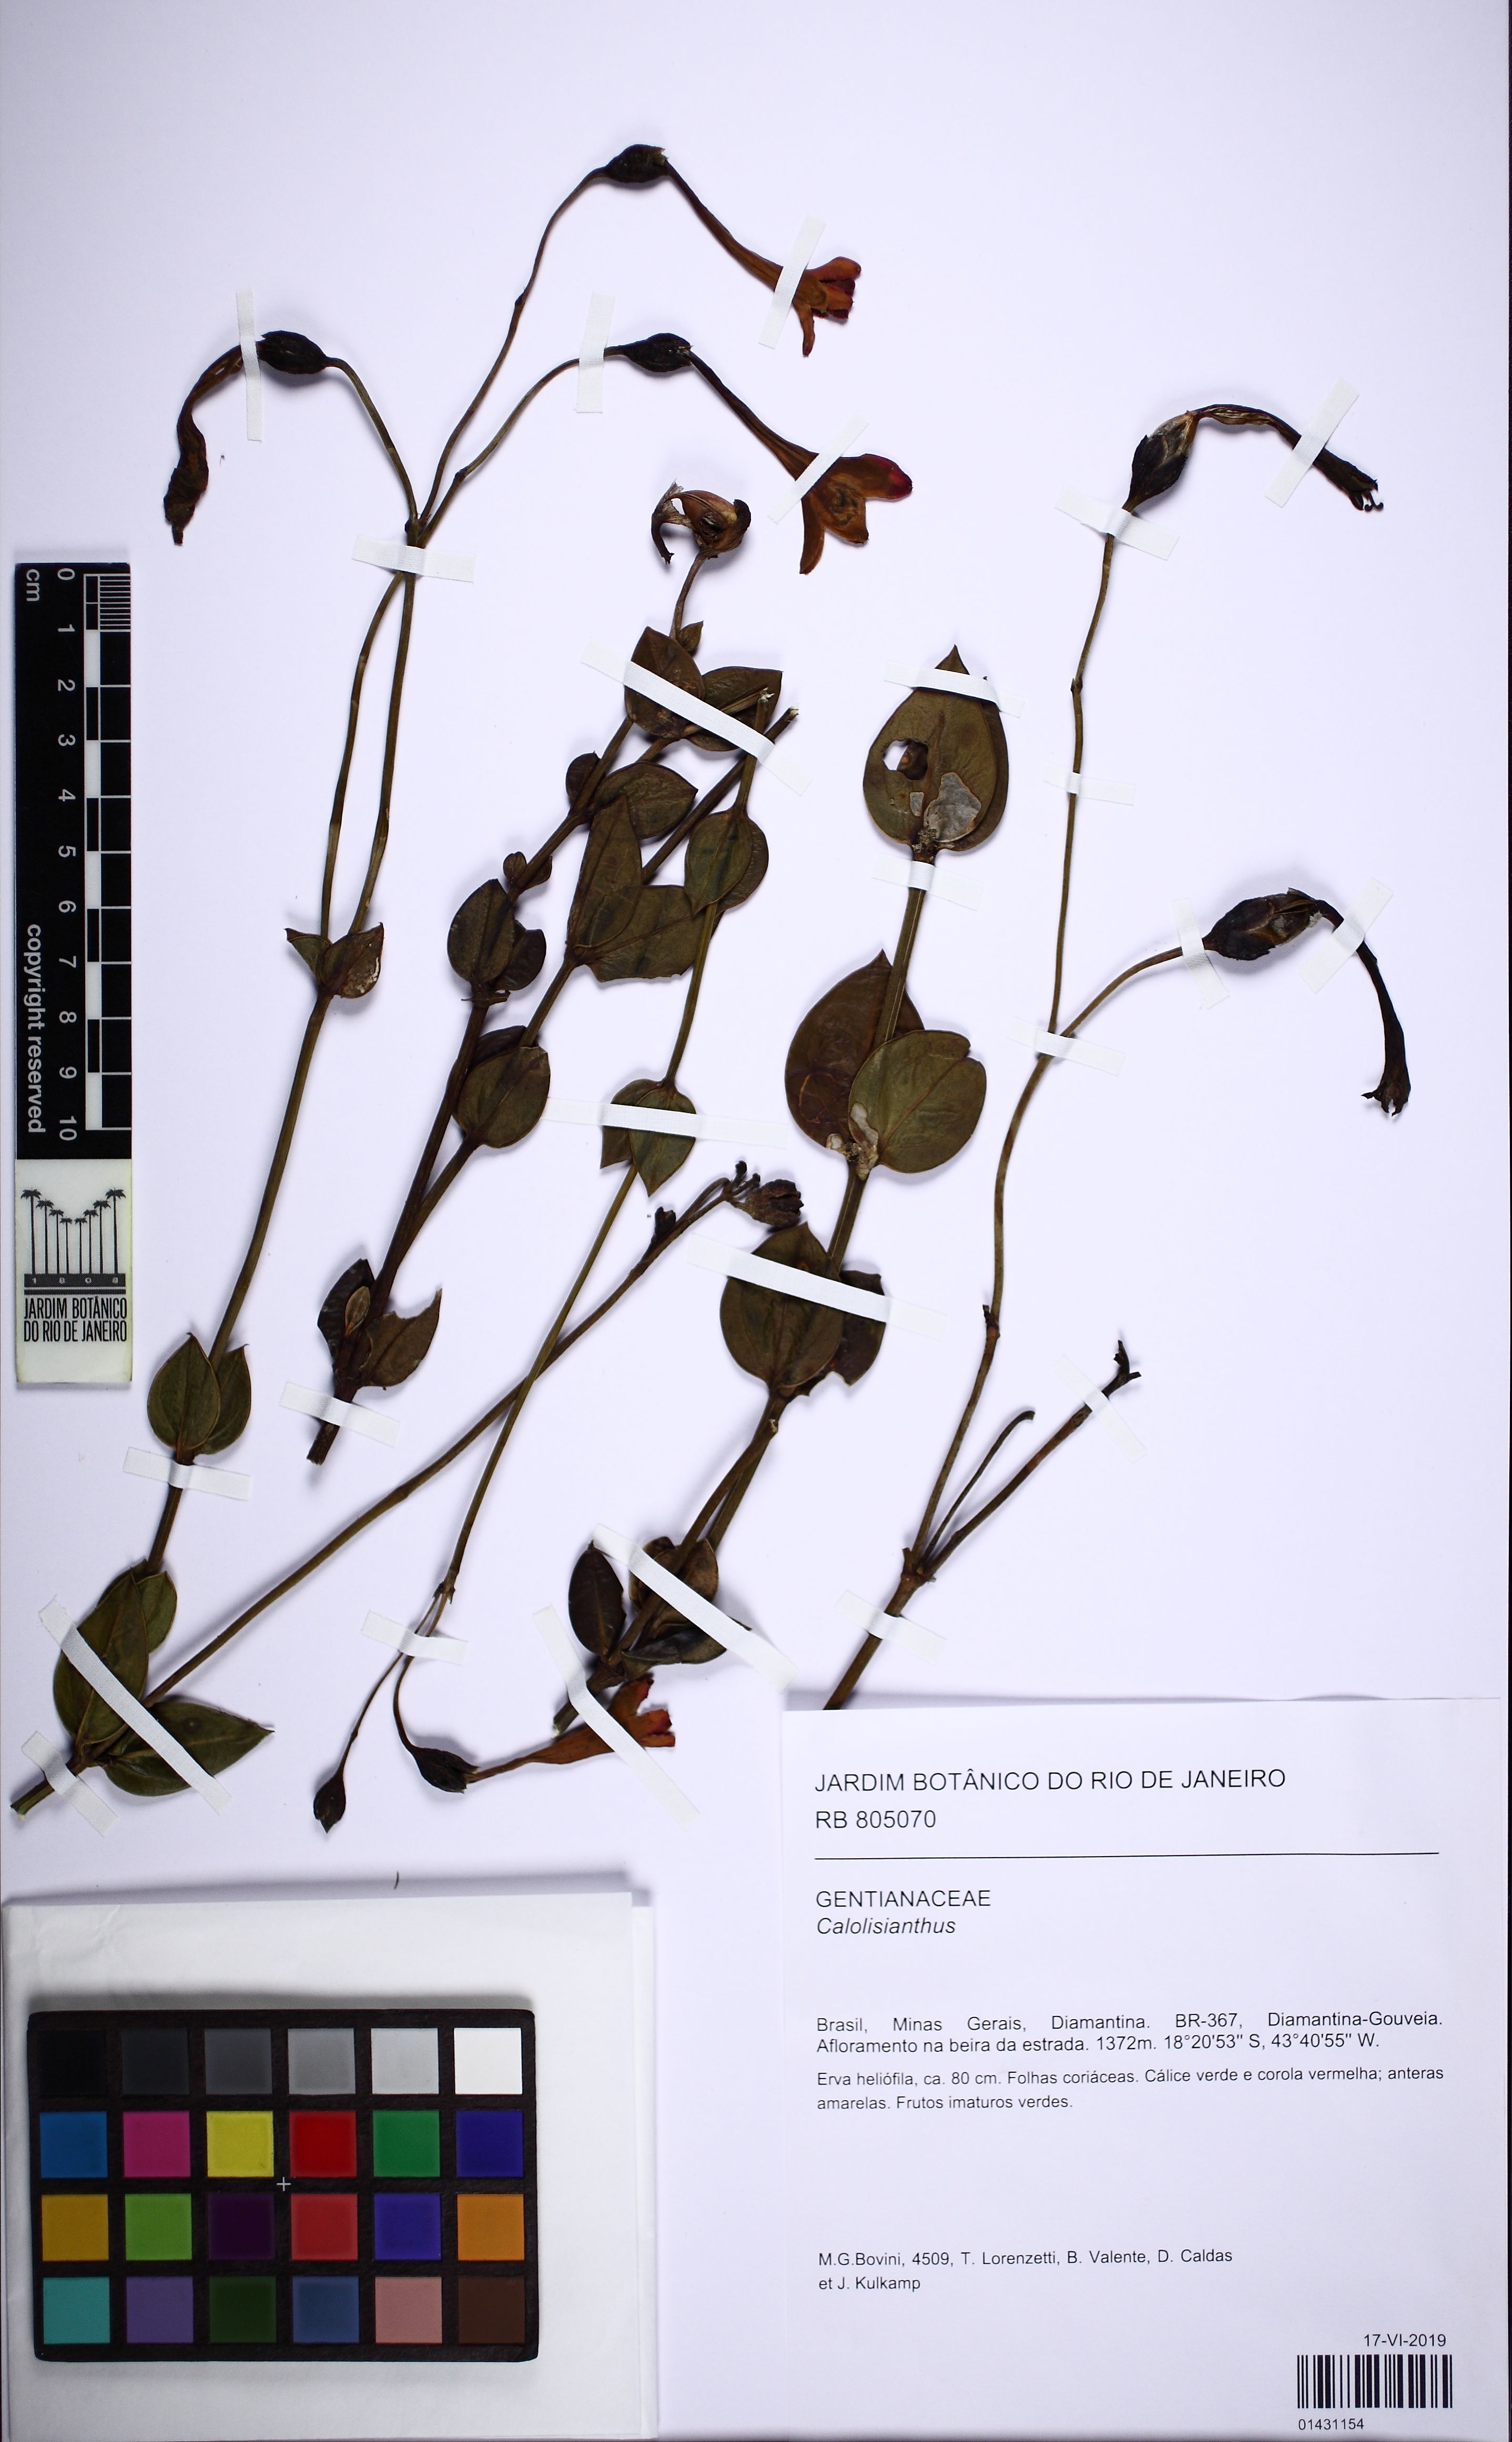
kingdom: Plantae
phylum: Tracheophyta
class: Magnoliopsida
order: Gentianales
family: Gentianaceae
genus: Calolisianthus
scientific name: Calolisianthus
